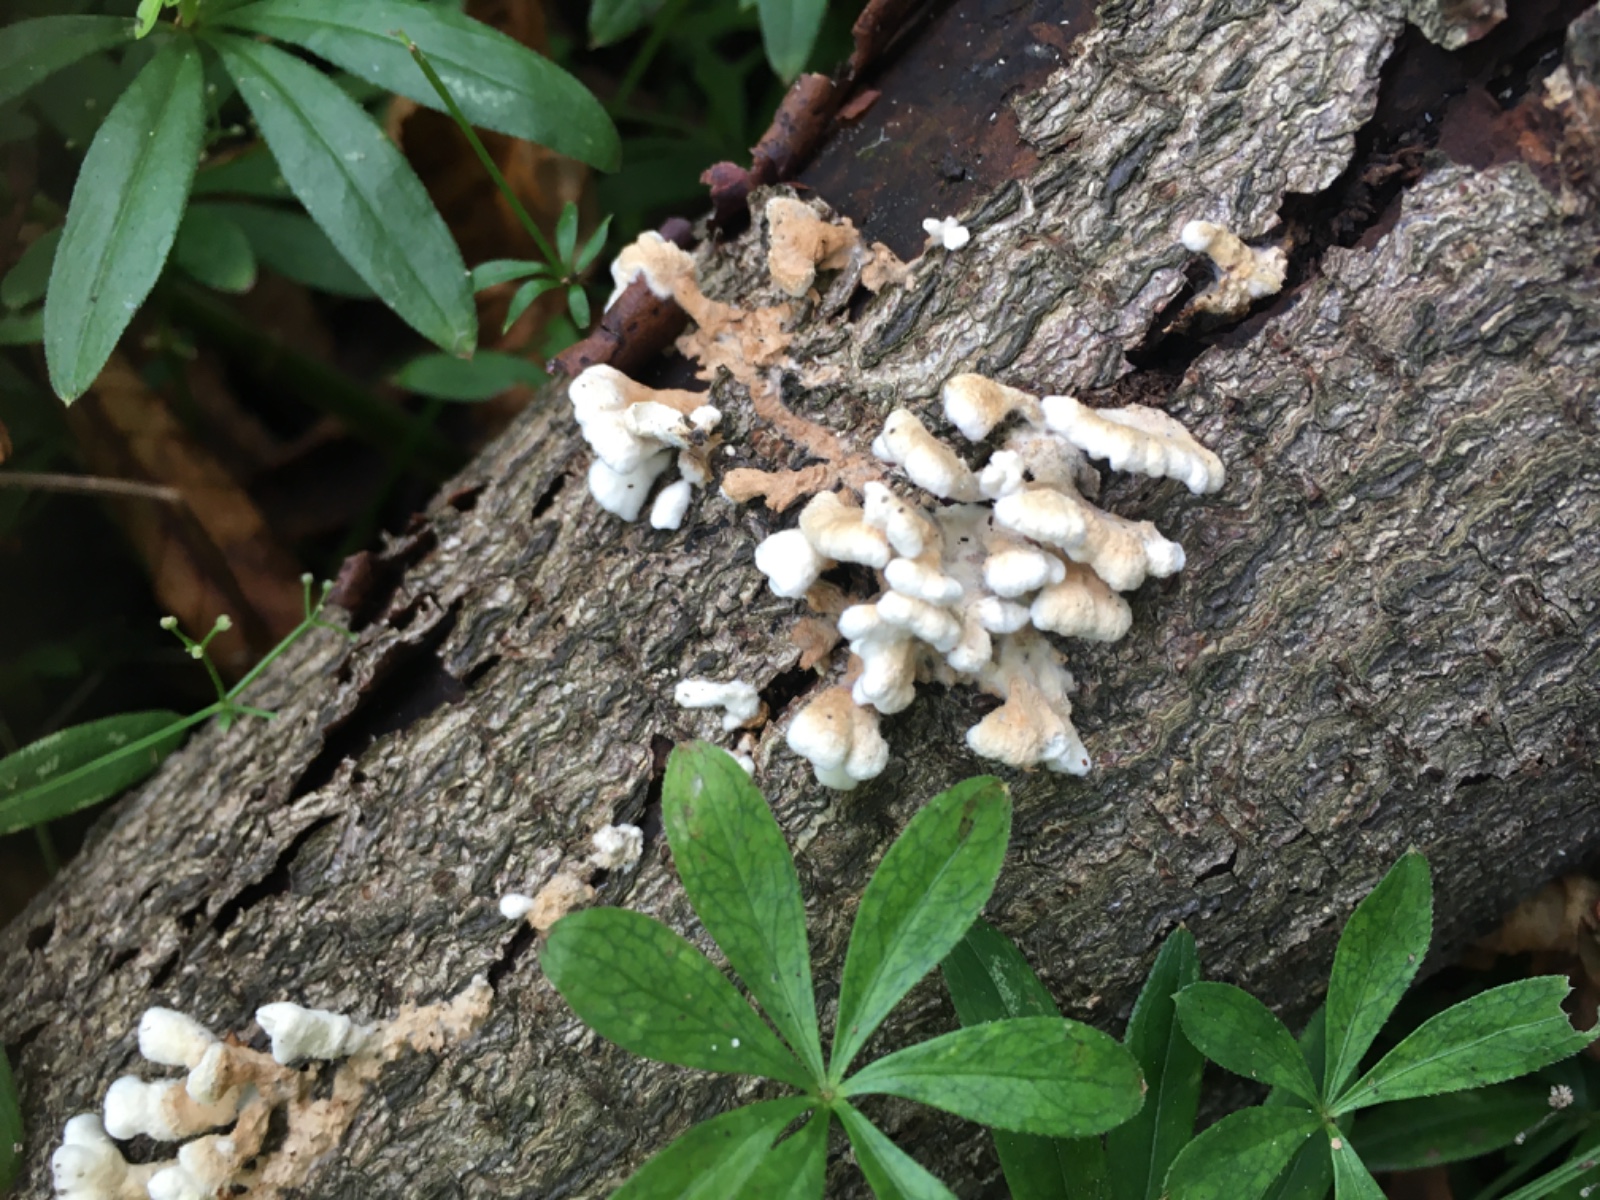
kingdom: Fungi
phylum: Basidiomycota
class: Agaricomycetes
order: Amylocorticiales
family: Amylocorticiaceae
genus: Plicaturopsis
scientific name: Plicaturopsis crispa
